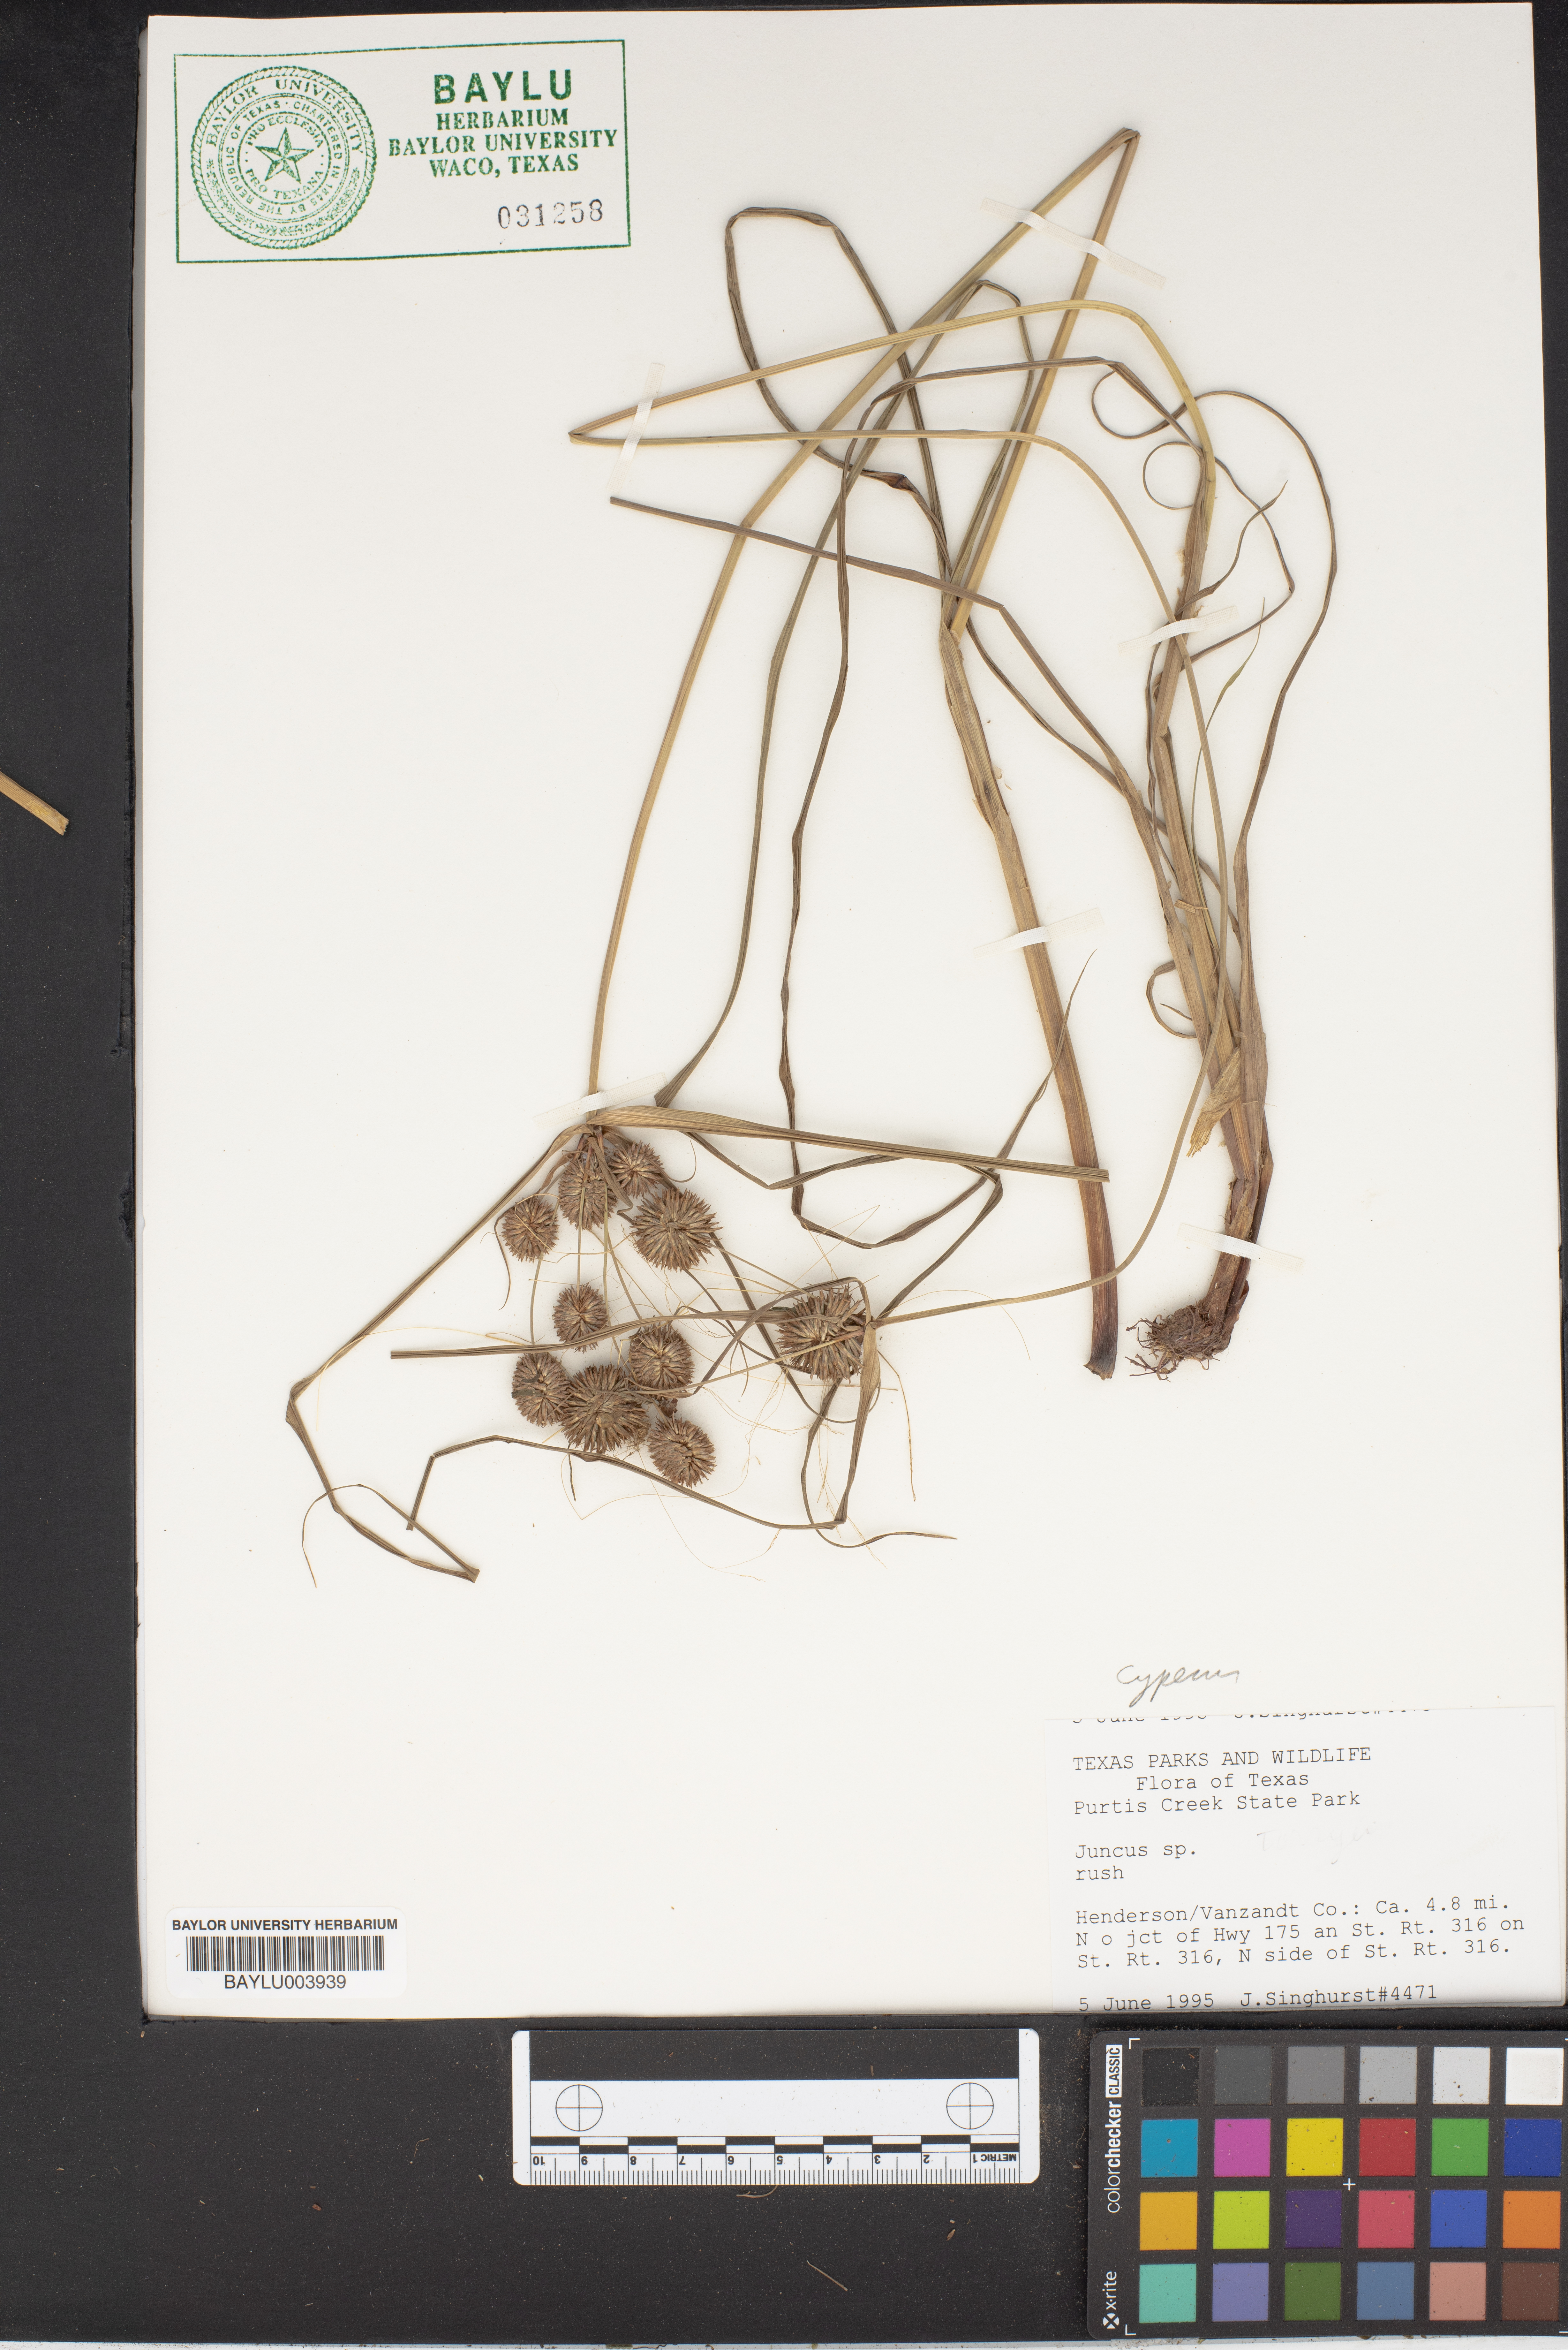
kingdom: Plantae
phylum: Tracheophyta
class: Liliopsida
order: Poales
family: Juncaceae
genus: Juncus
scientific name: Juncus
